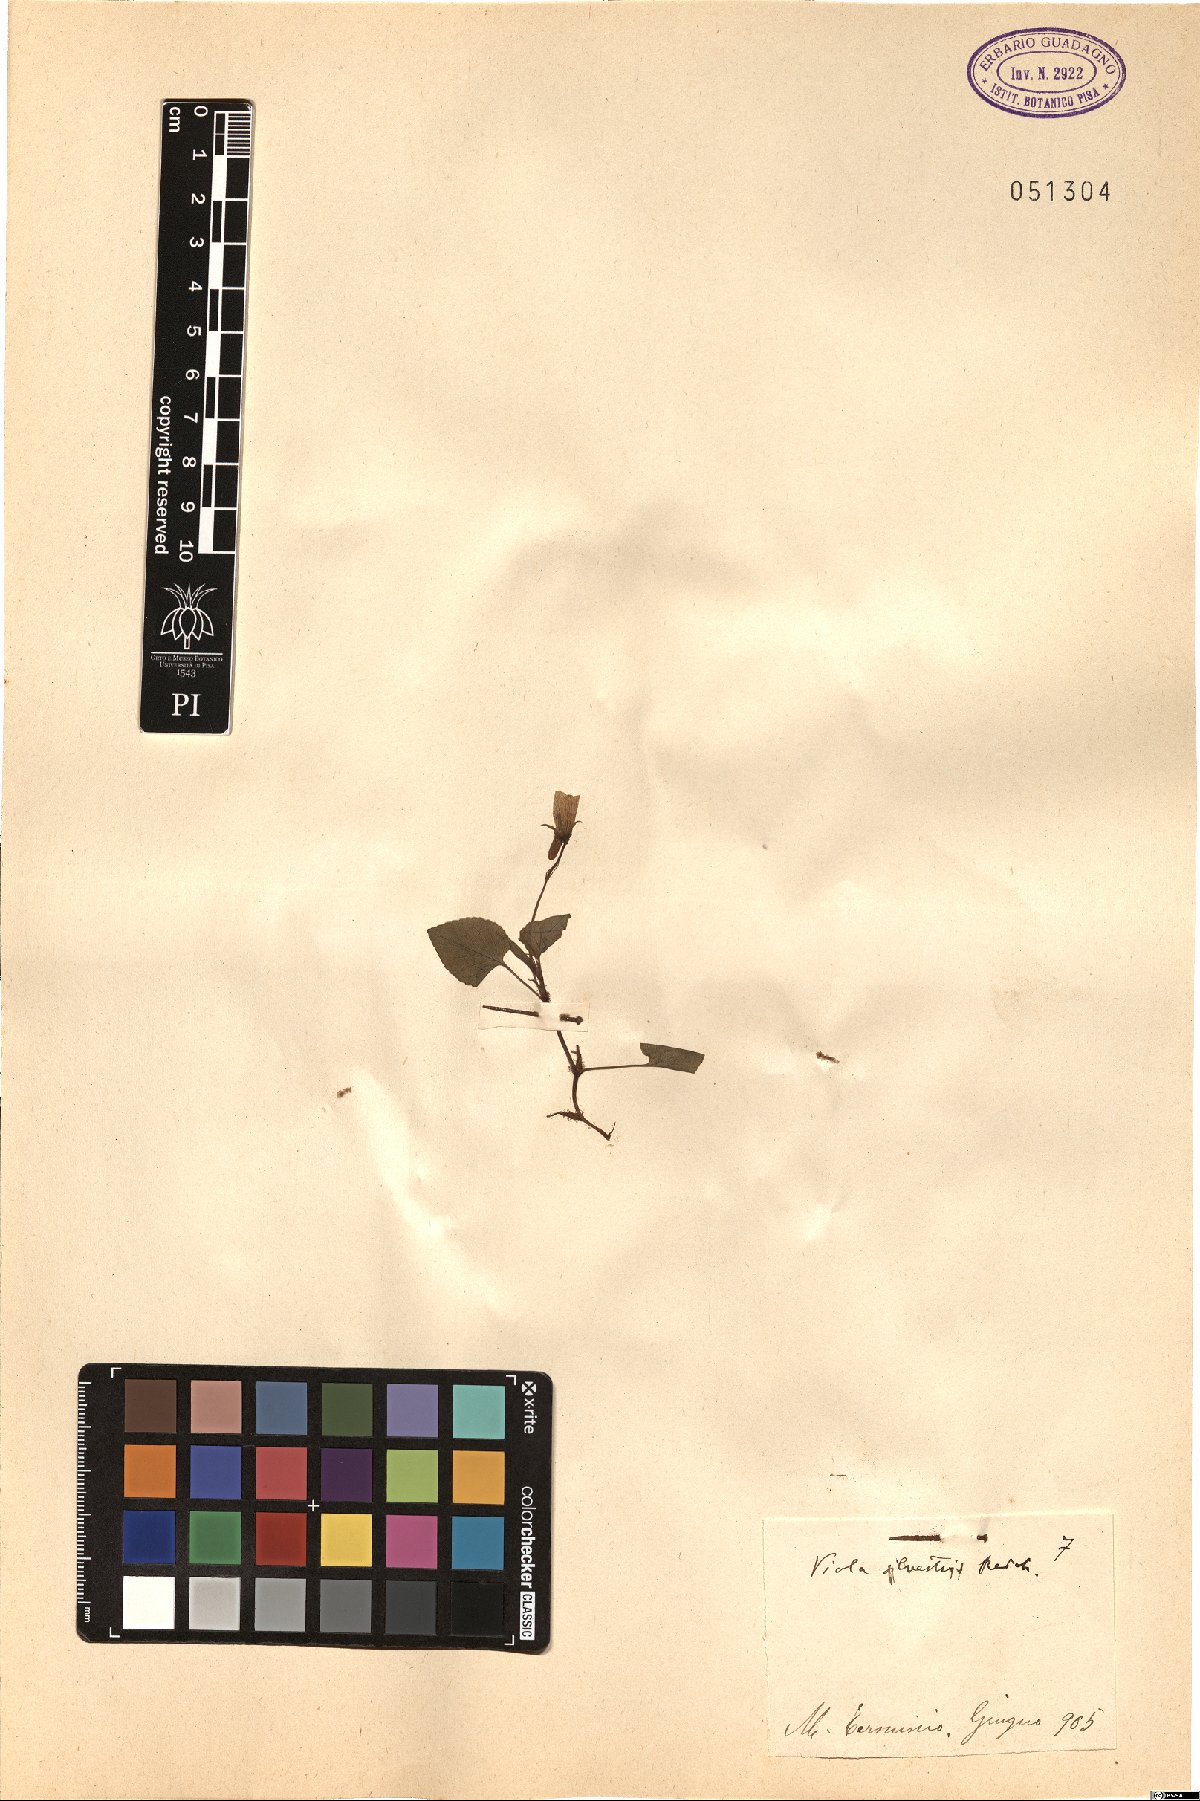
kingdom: Plantae
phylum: Tracheophyta
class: Magnoliopsida
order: Malpighiales
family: Violaceae
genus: Viola
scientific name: Viola canina
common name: Heath dog-violet
